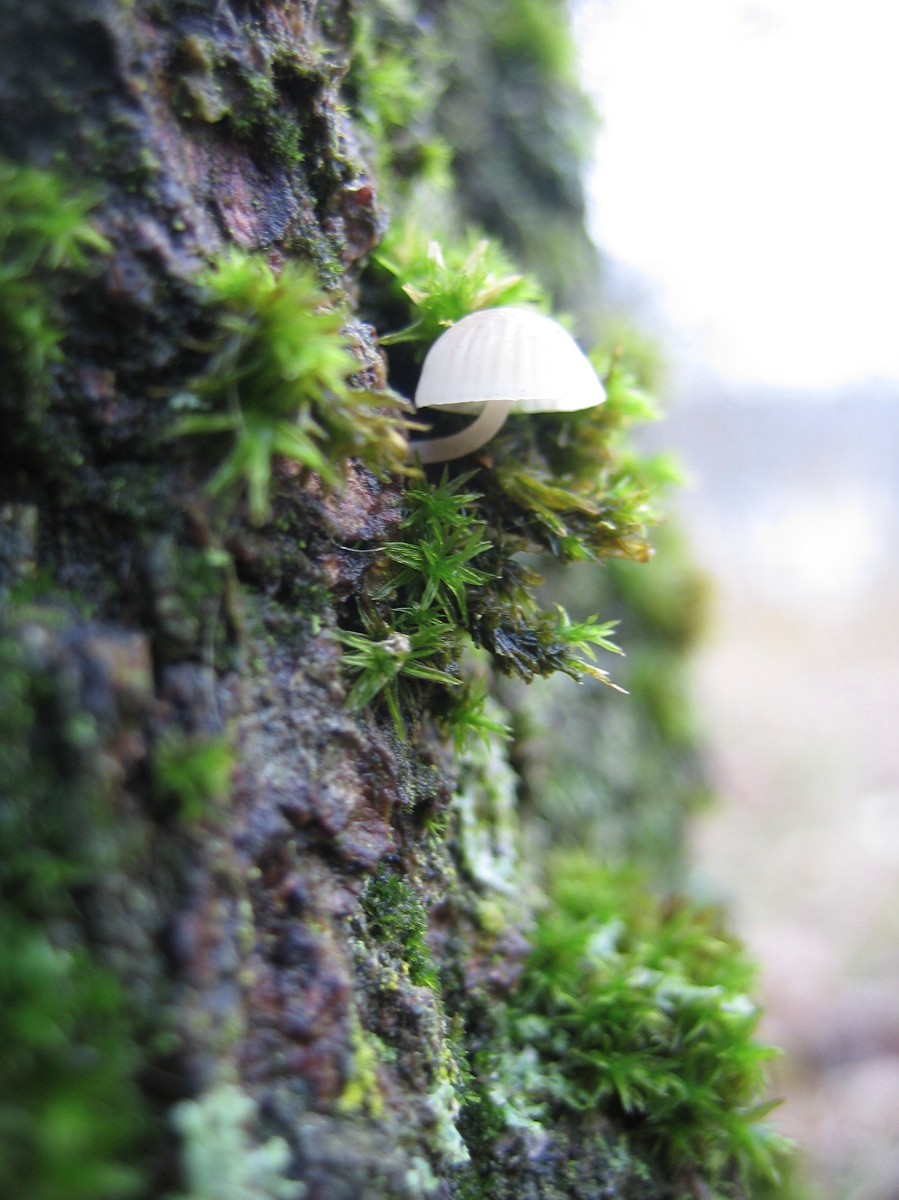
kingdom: Fungi
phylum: Basidiomycota
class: Agaricomycetes
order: Agaricales
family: Mycenaceae
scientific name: Mycenaceae
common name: huesvampfamilien
